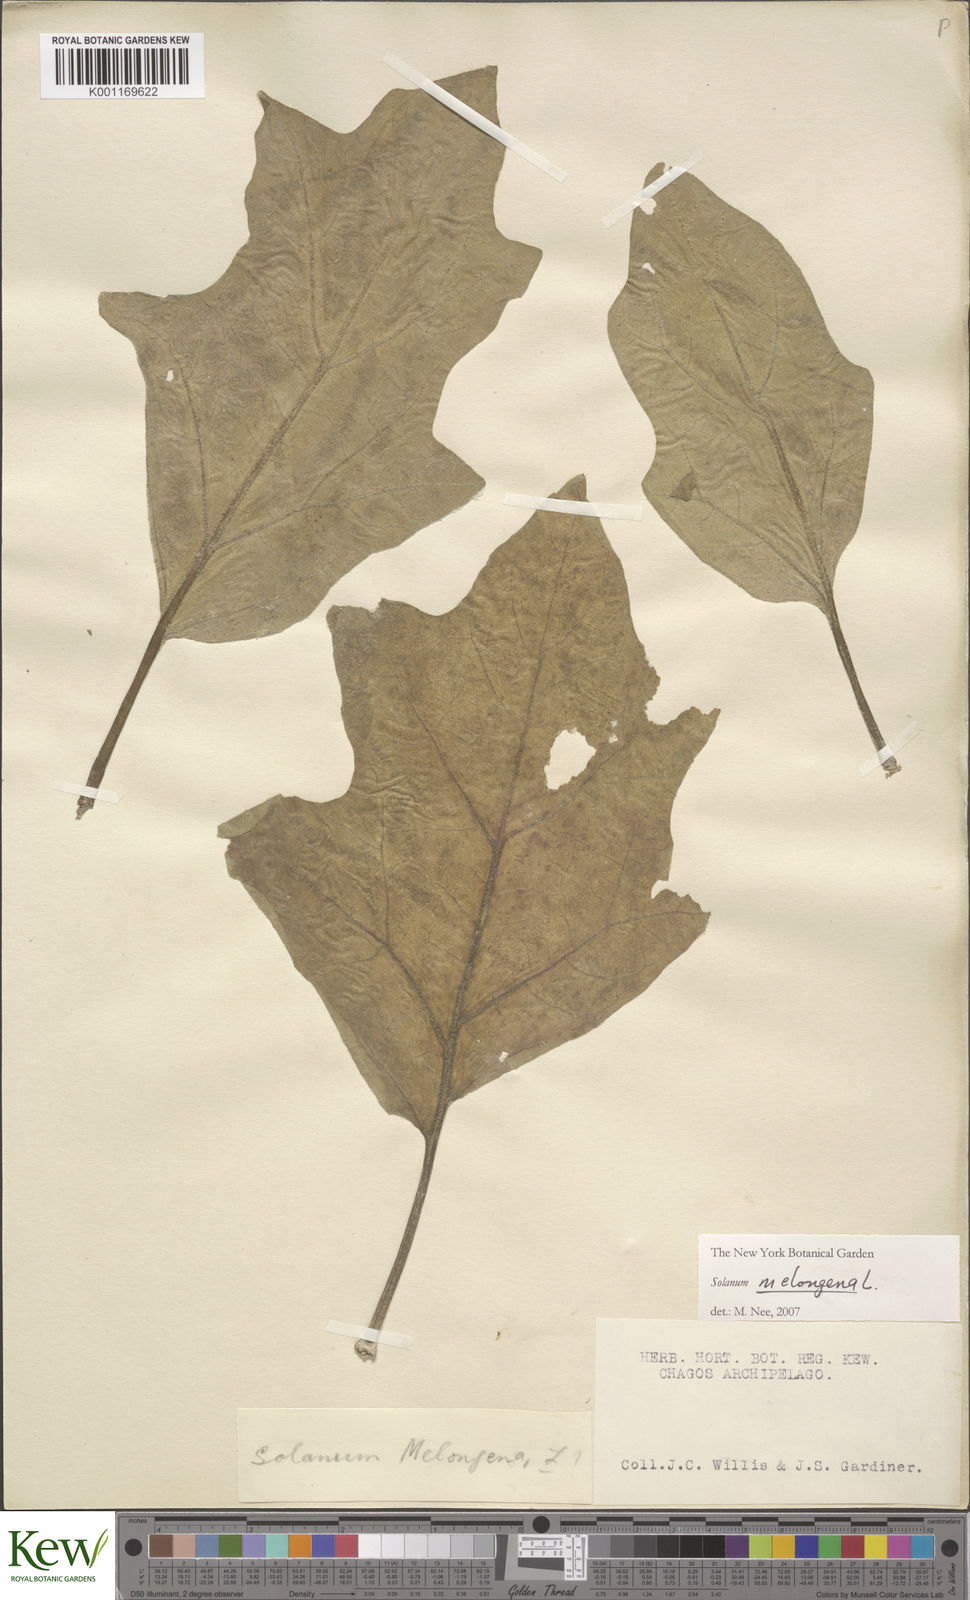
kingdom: Plantae
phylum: Tracheophyta
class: Magnoliopsida
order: Solanales
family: Solanaceae
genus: Solanum
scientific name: Solanum melongena
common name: Eggplant
